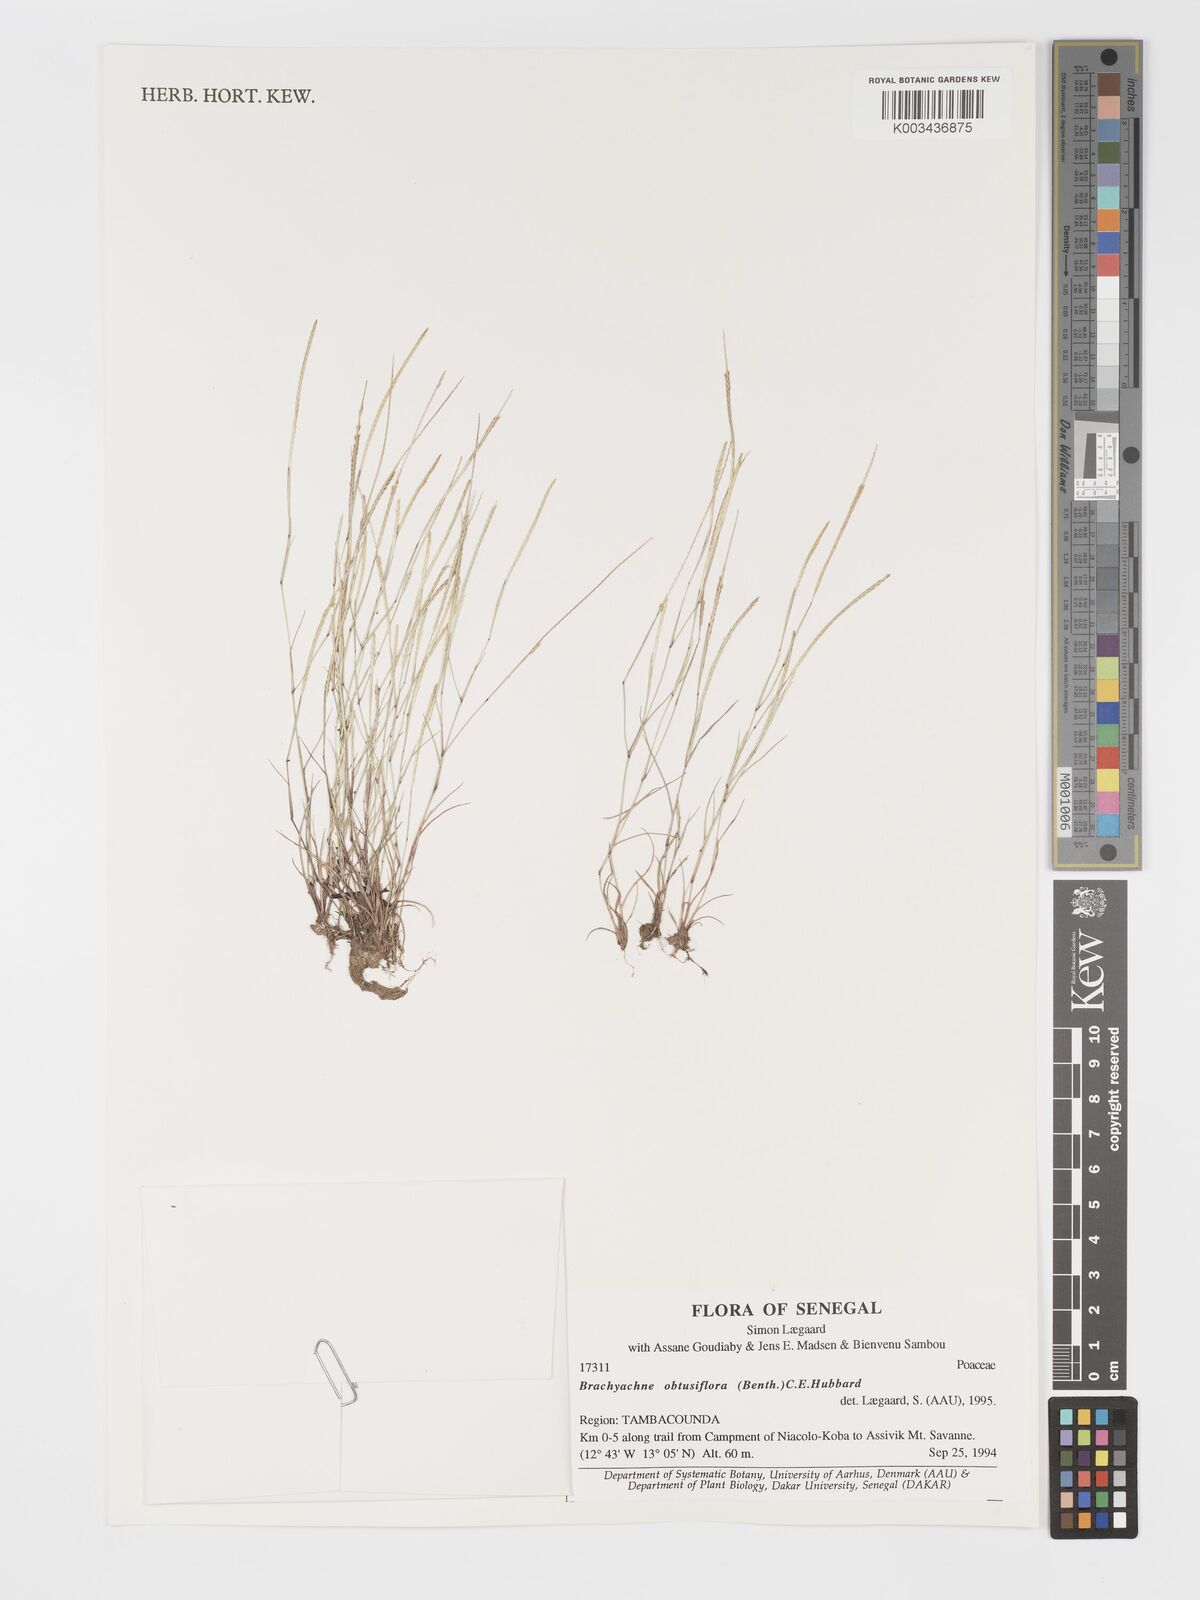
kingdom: Plantae
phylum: Tracheophyta
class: Liliopsida
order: Poales
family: Poaceae
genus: Micrachne
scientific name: Micrachne obtusiflora
